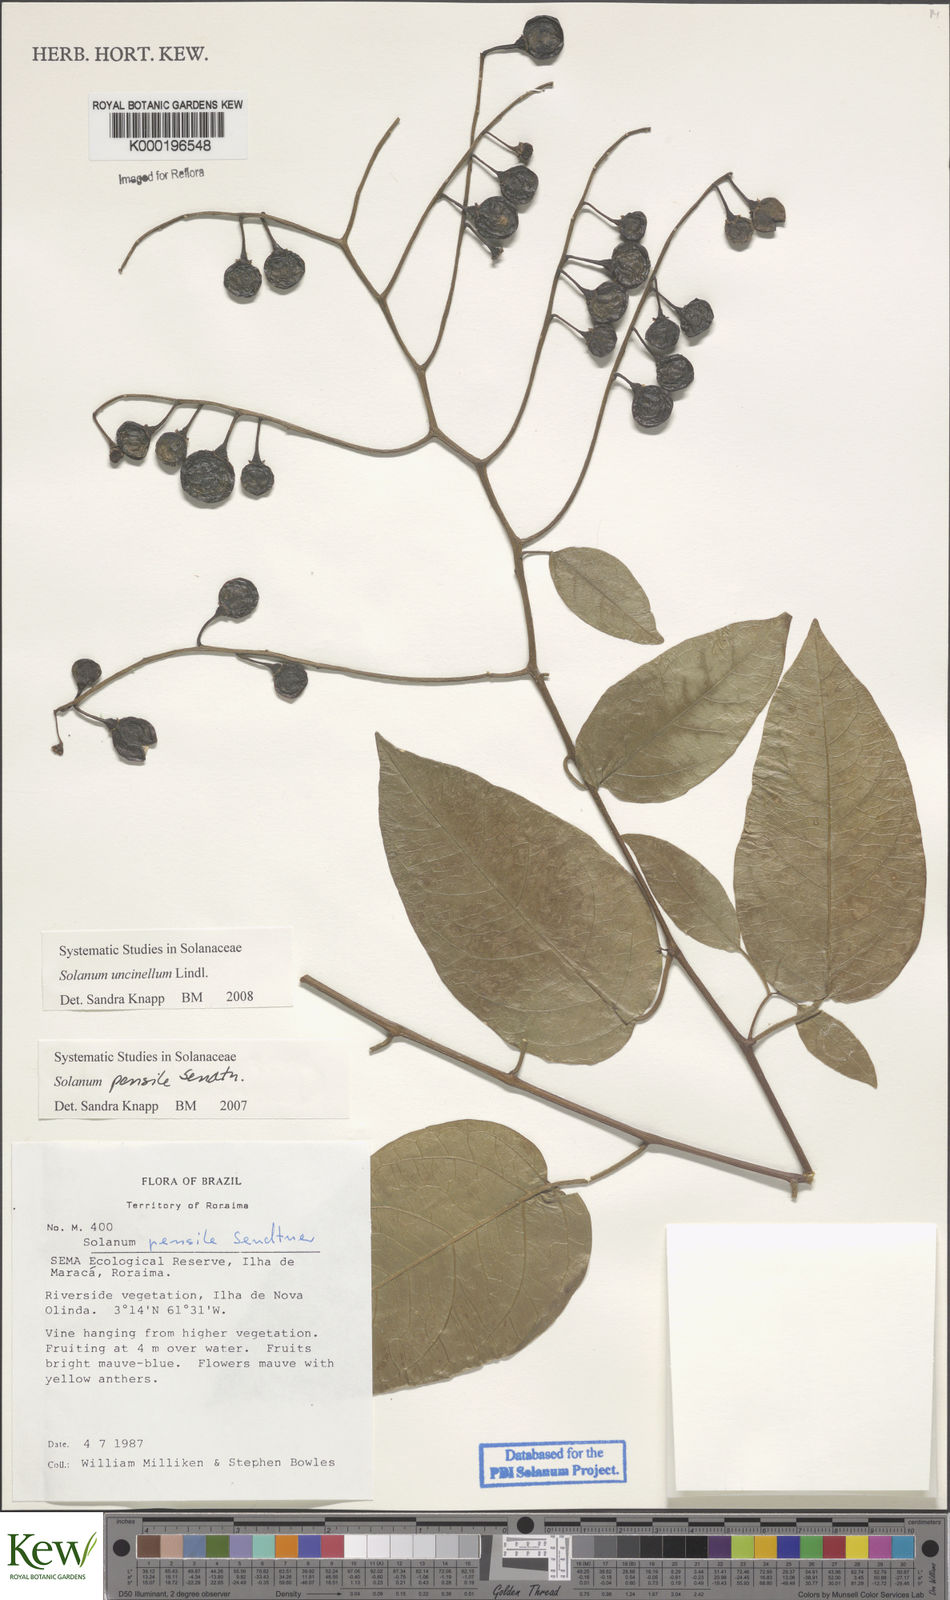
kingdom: Plantae
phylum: Tracheophyta
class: Magnoliopsida
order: Solanales
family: Solanaceae
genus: Solanum
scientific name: Solanum uncinellum
